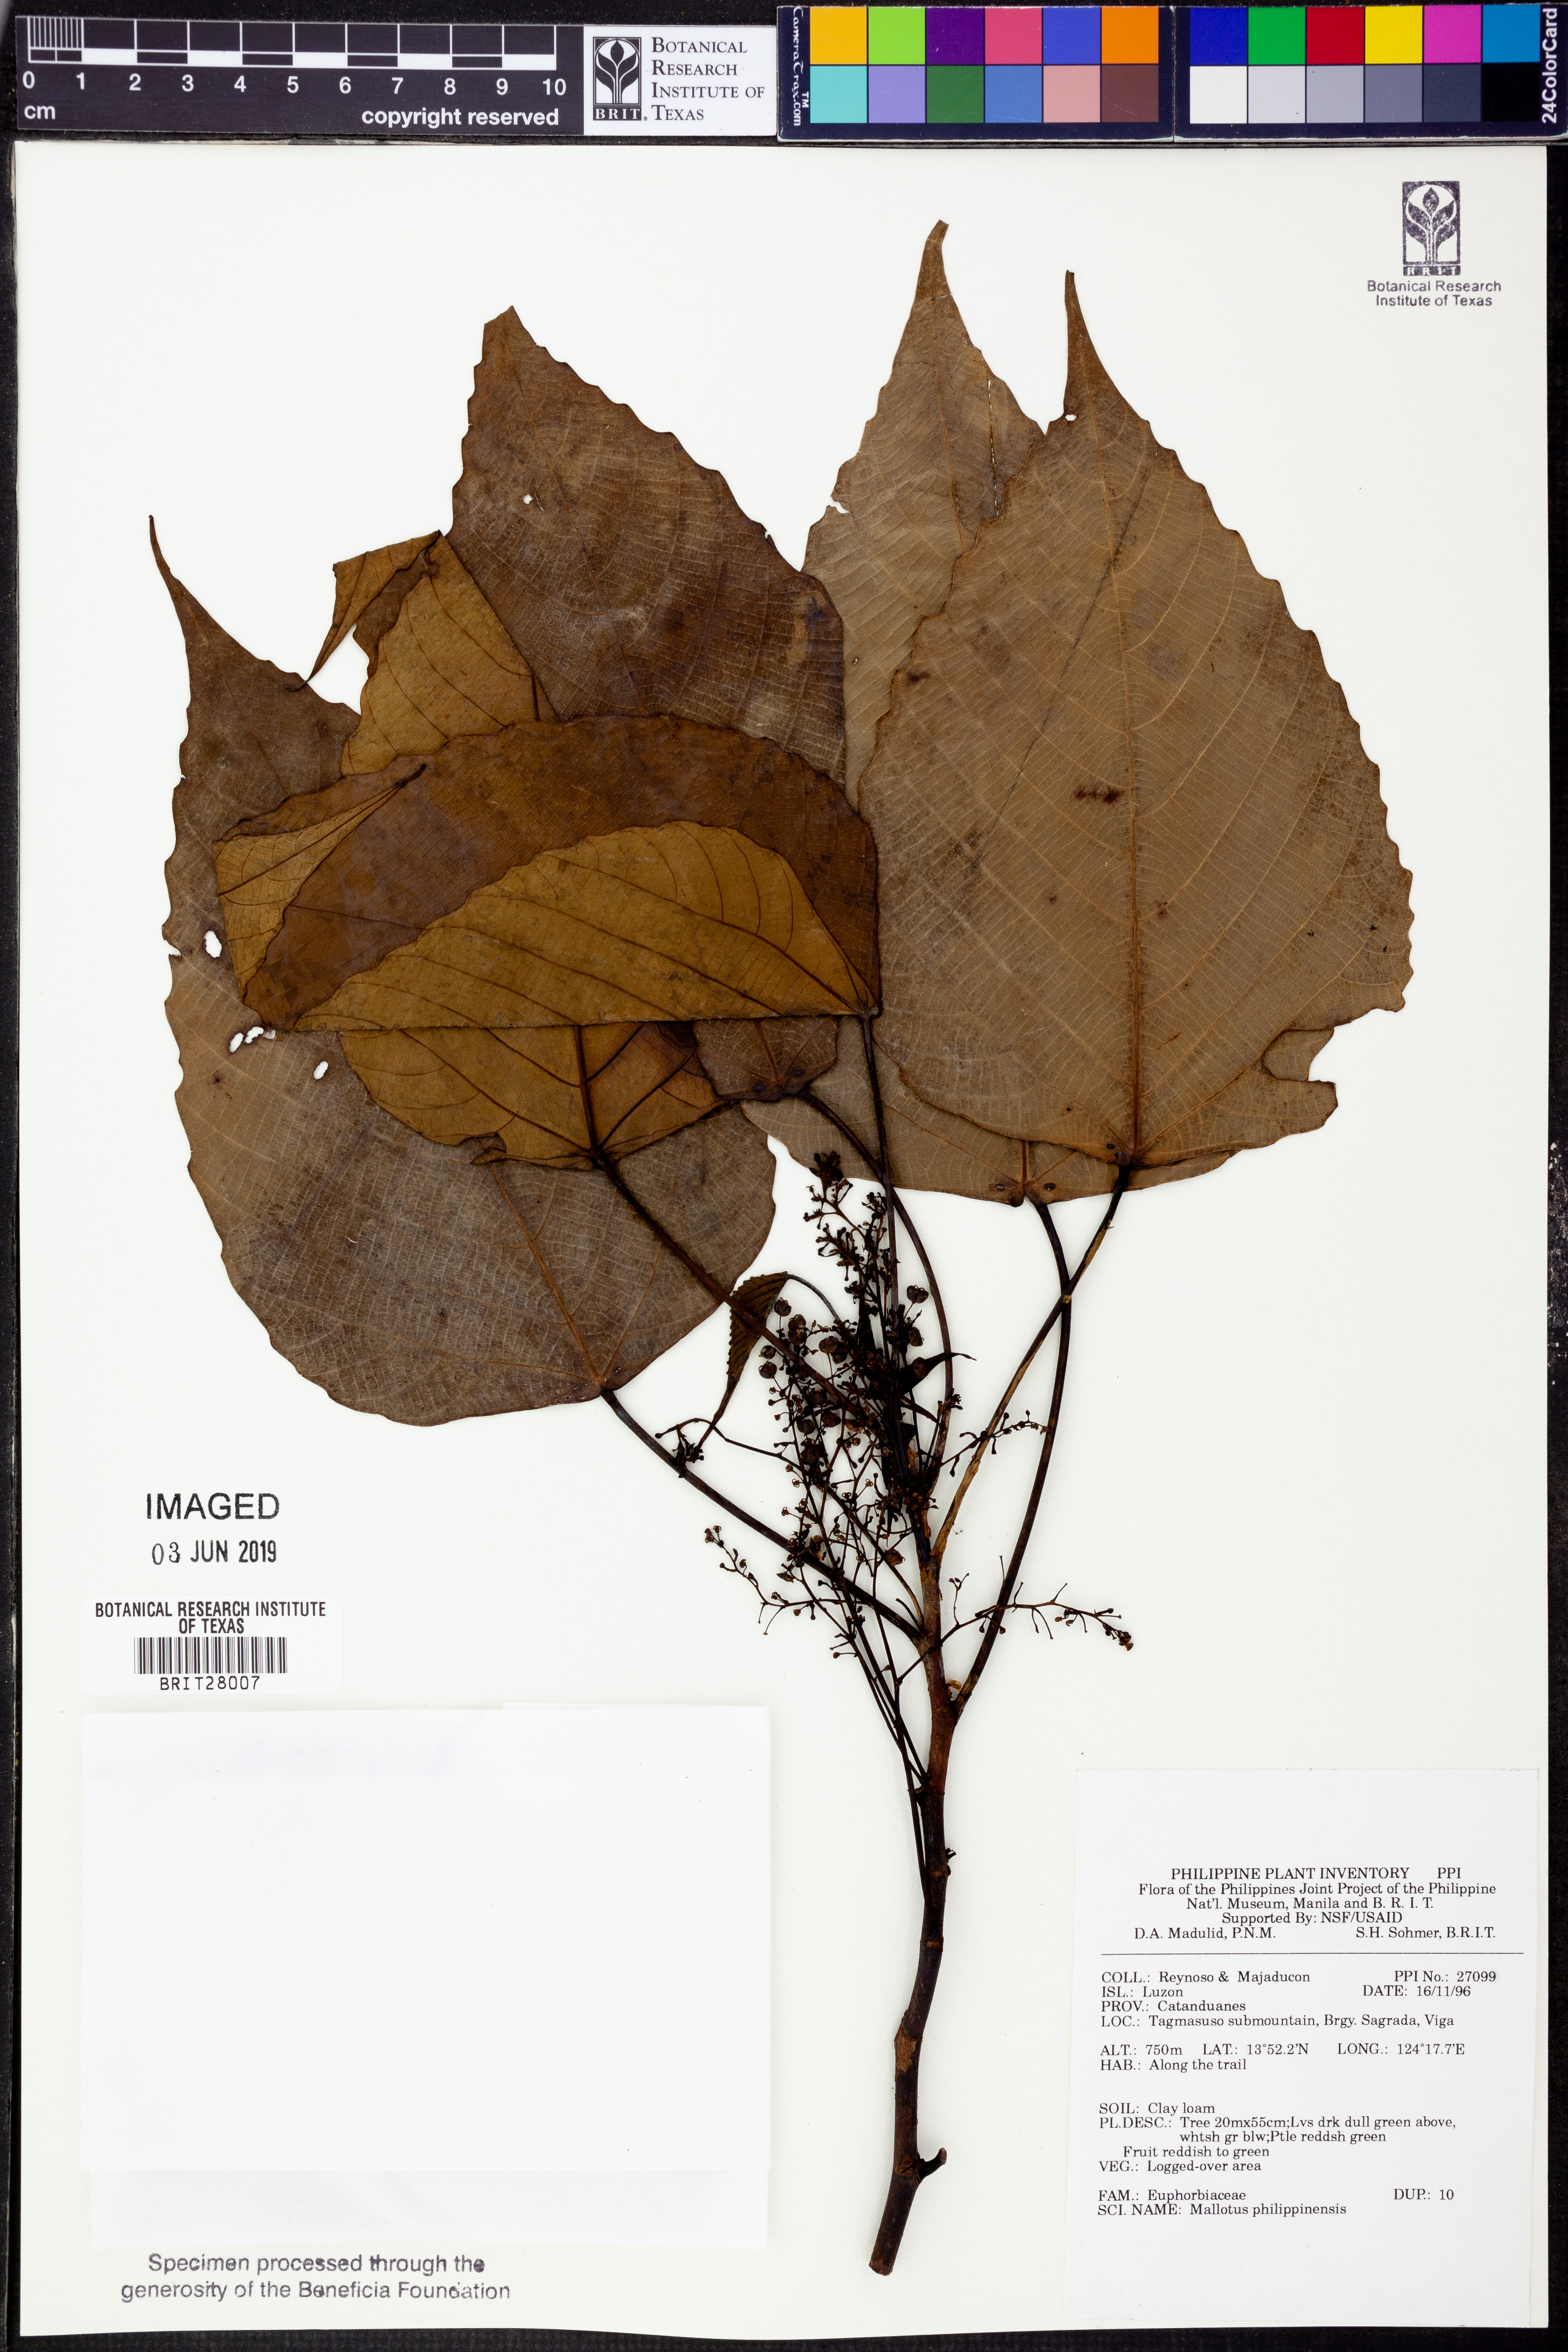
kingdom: Plantae
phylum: Tracheophyta
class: Magnoliopsida
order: Malpighiales
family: Euphorbiaceae
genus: Mallotus
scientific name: Mallotus philippensis
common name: Kamala tree
